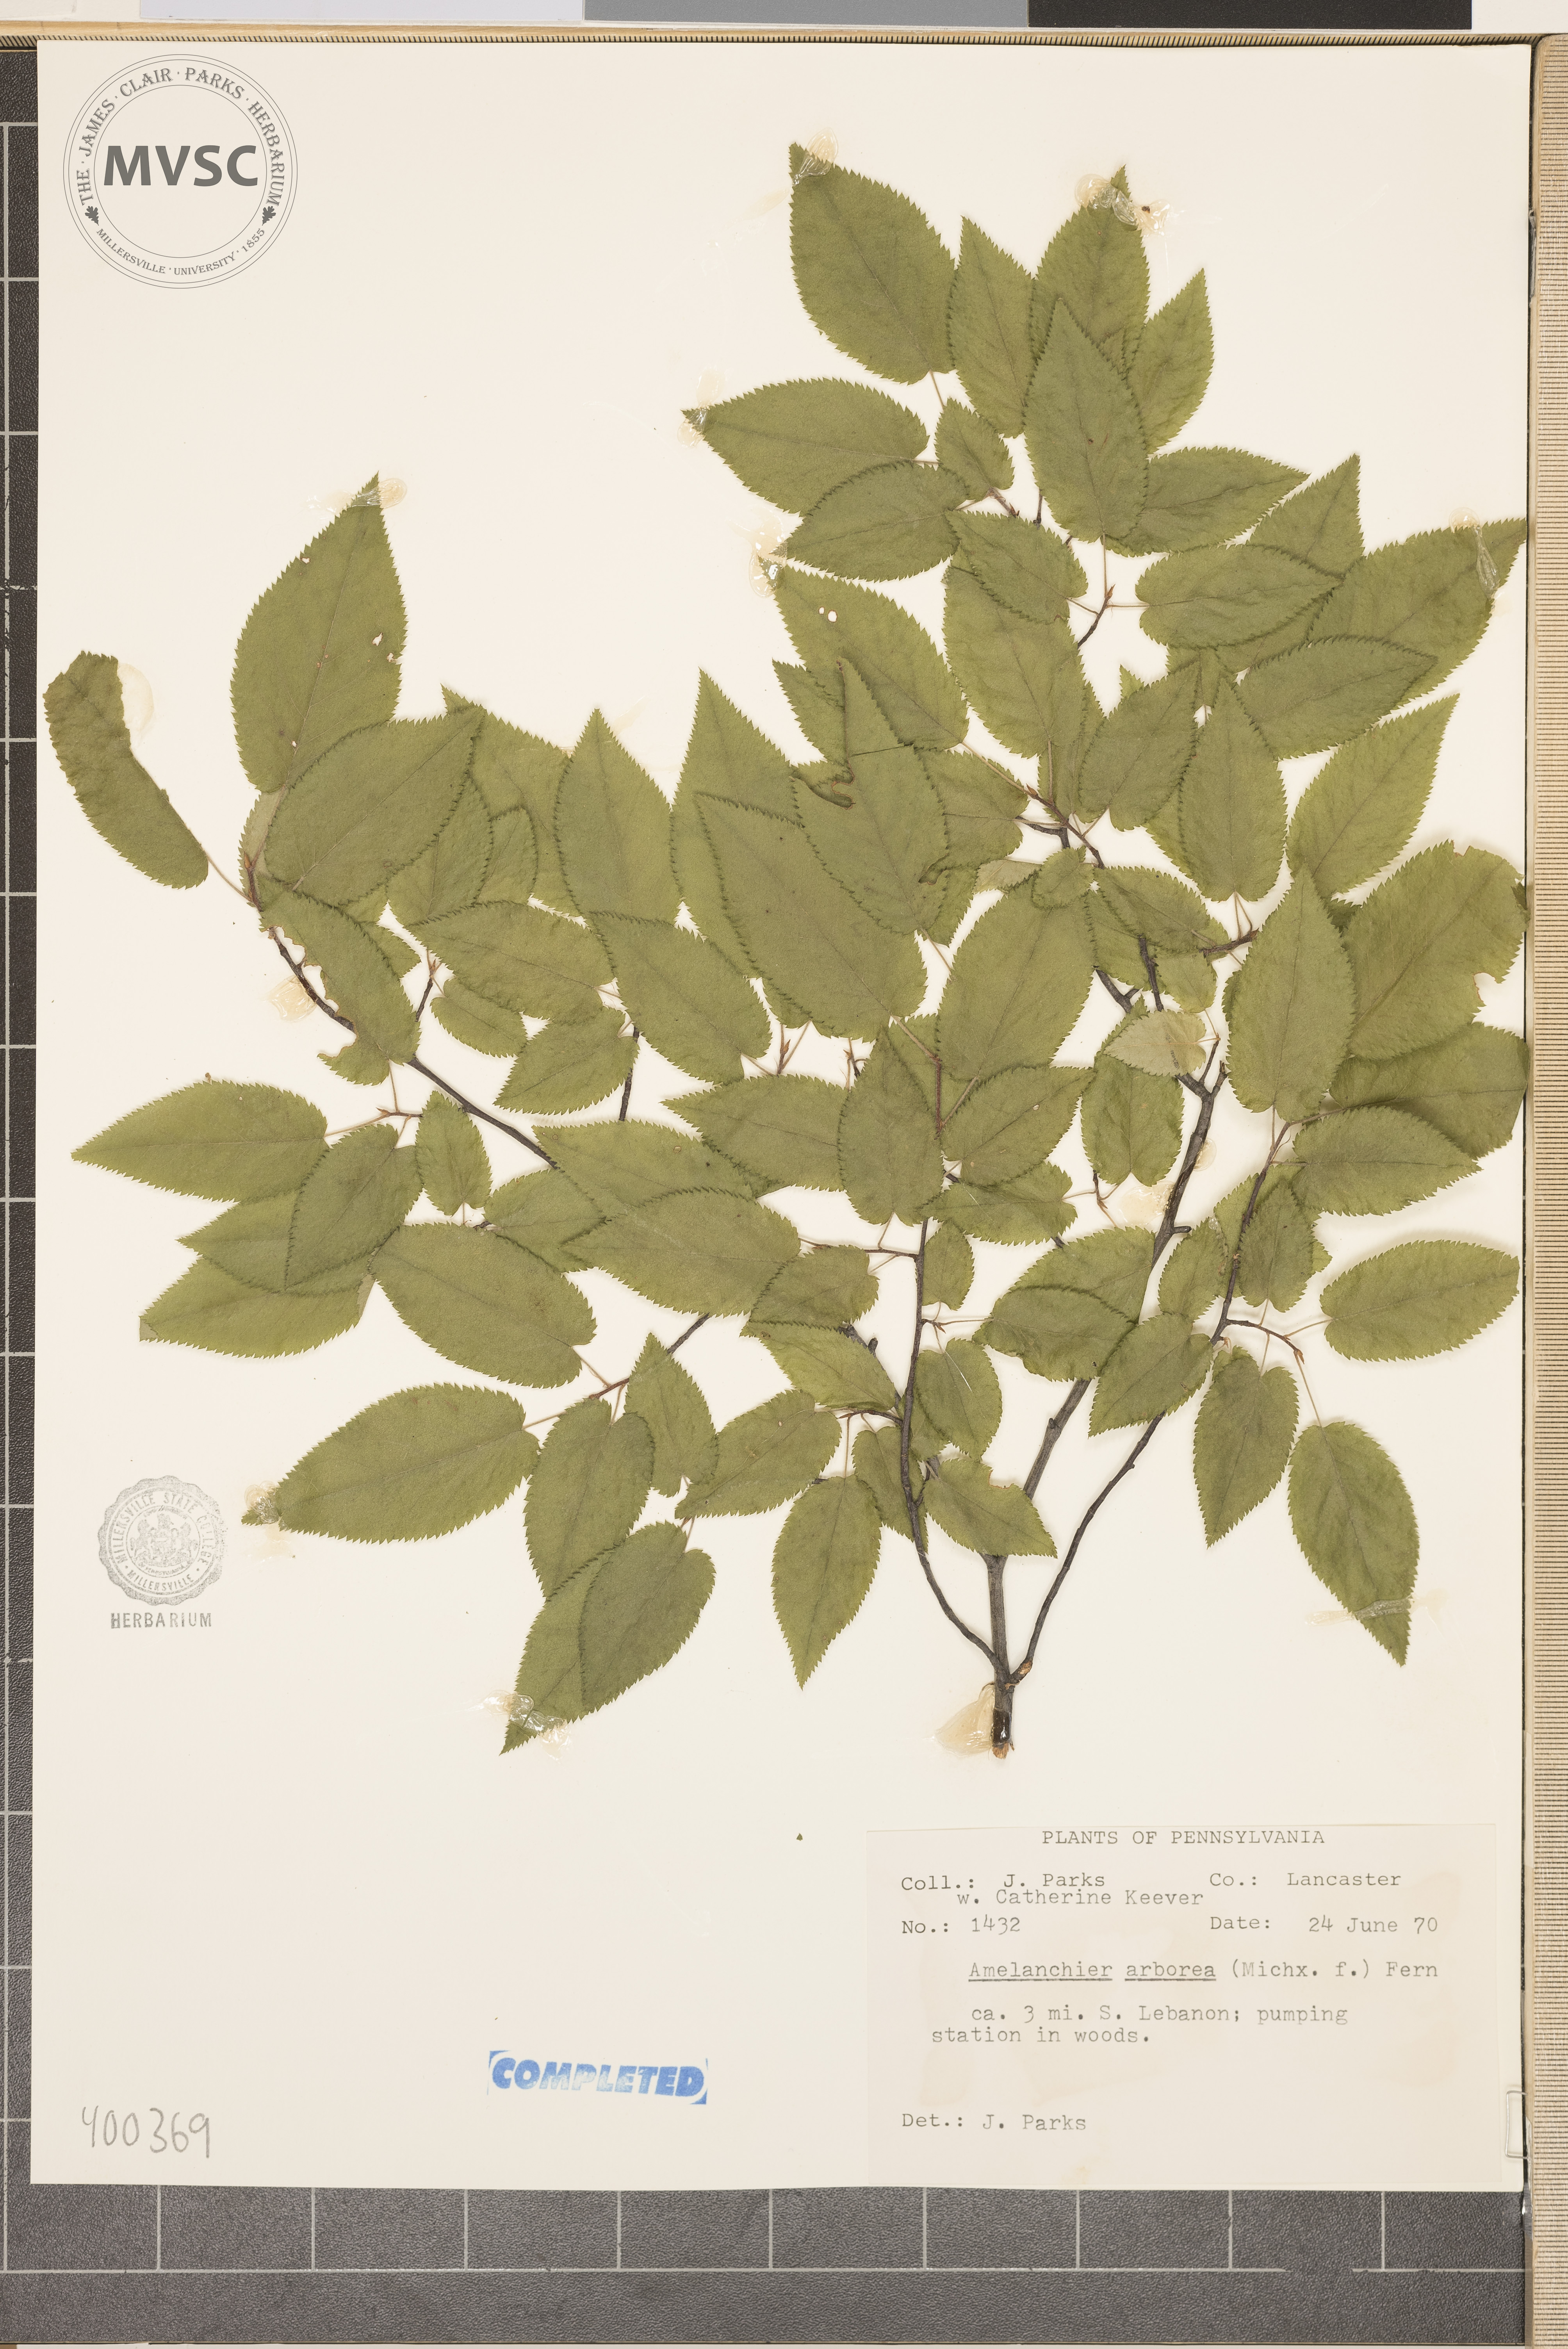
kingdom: Plantae
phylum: Tracheophyta
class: Magnoliopsida
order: Rosales
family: Rosaceae
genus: Amelanchier
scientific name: Amelanchier arborea
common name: serviceberry
